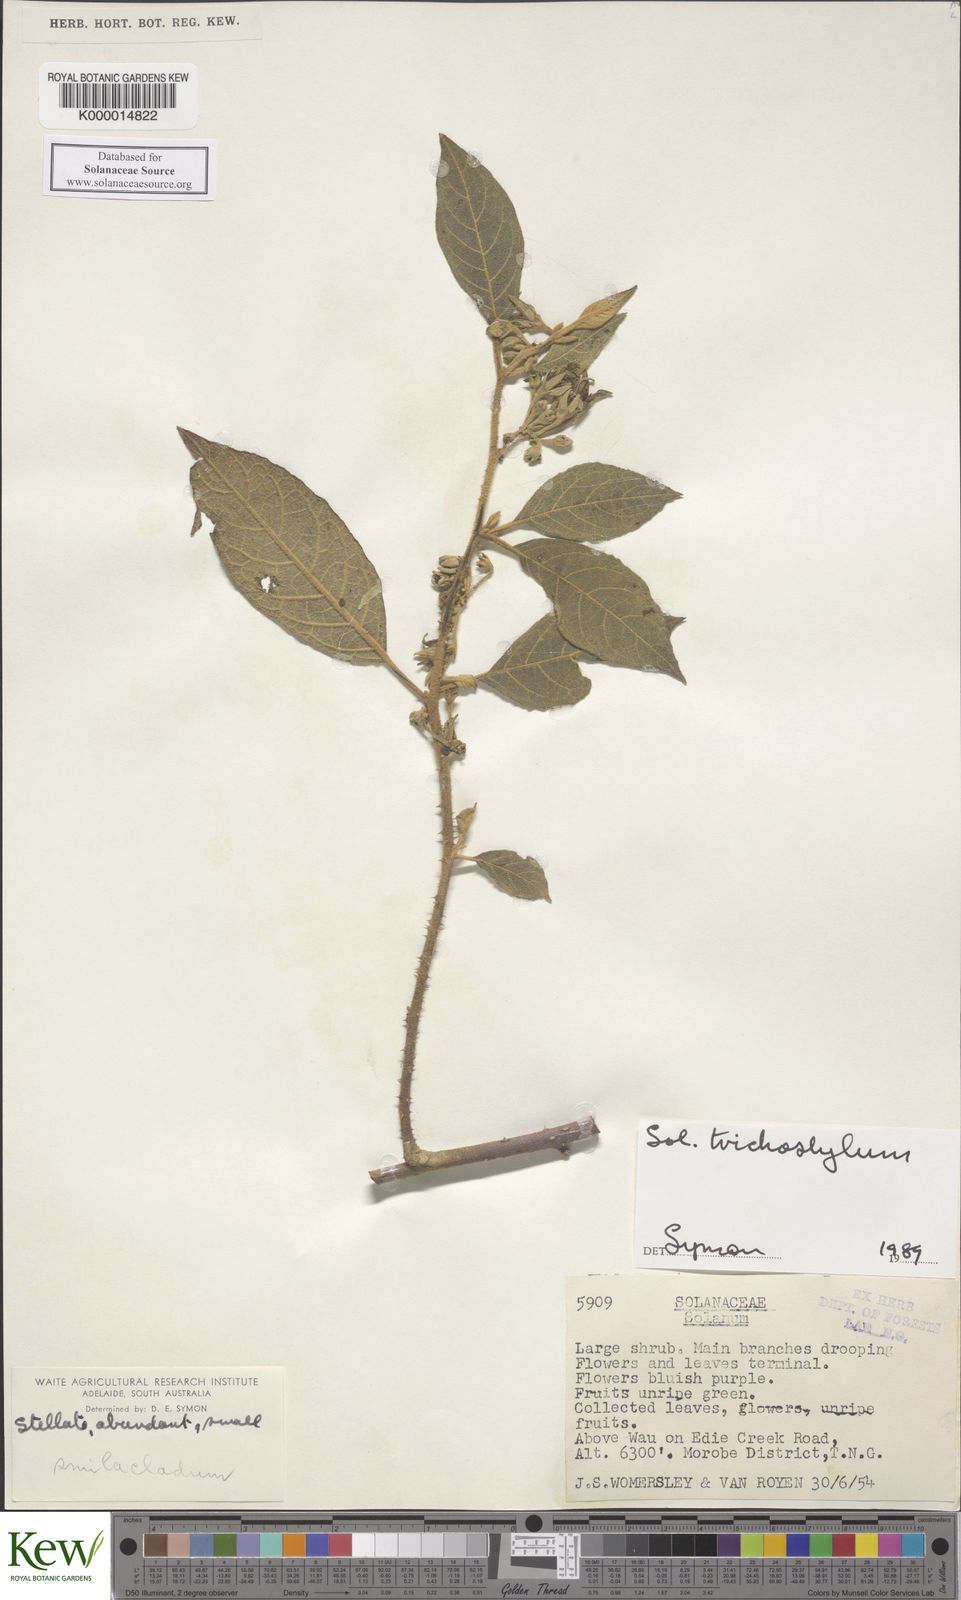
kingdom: Plantae
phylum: Tracheophyta
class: Magnoliopsida
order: Solanales
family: Solanaceae
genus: Solanum
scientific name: Solanum trichostylum
